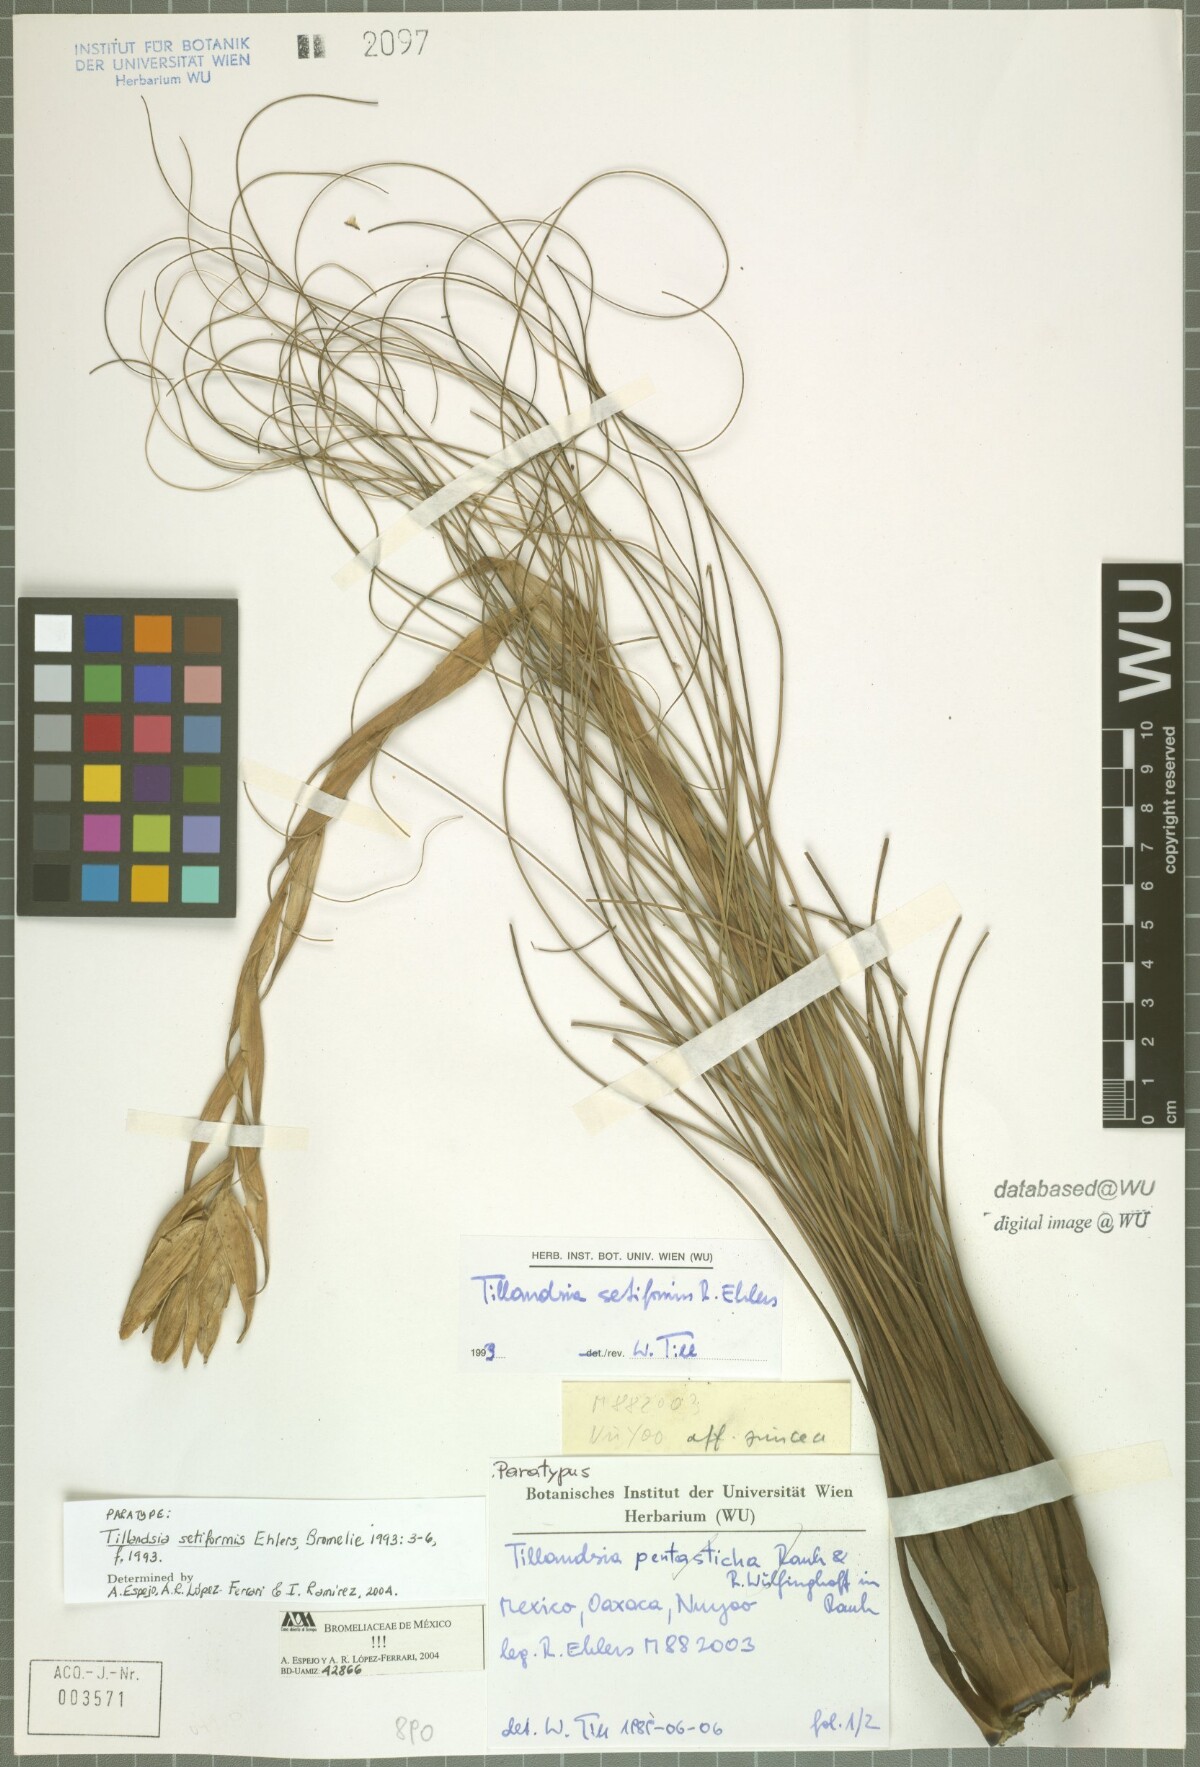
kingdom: Plantae
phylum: Tracheophyta
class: Liliopsida
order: Poales
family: Bromeliaceae
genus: Tillandsia
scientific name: Tillandsia setiformis
